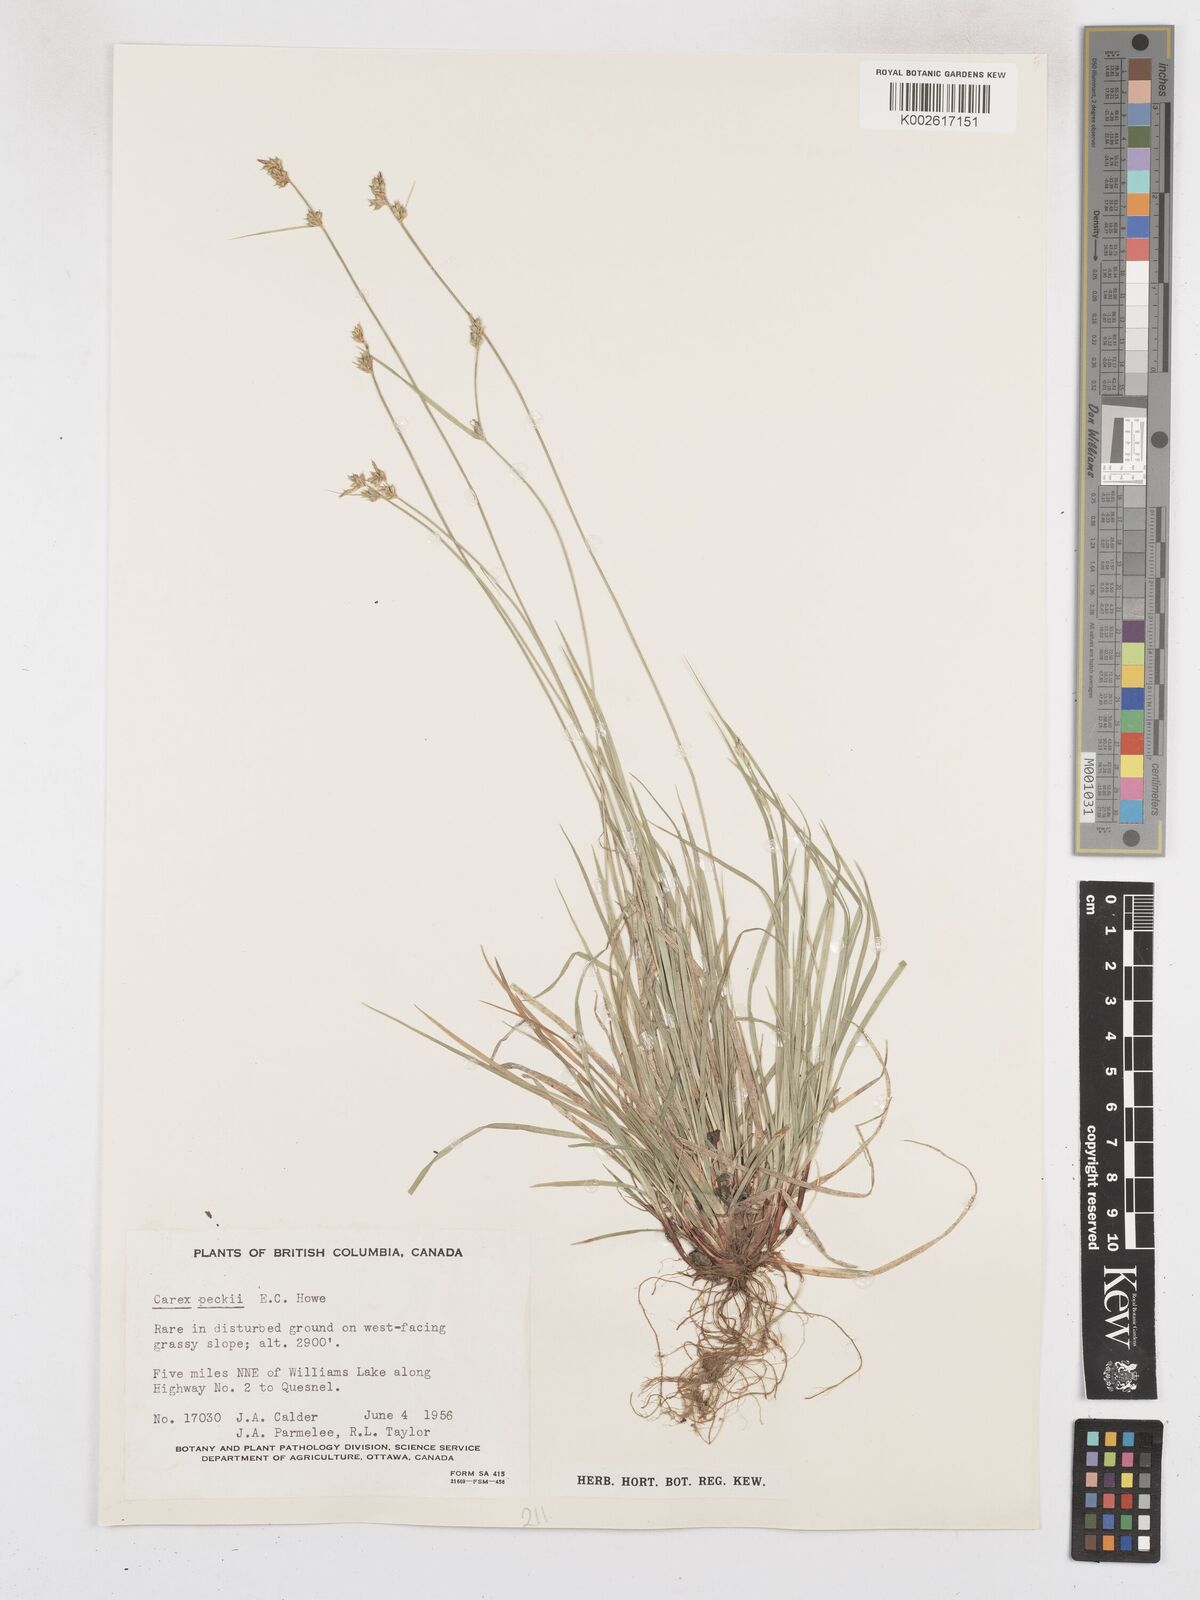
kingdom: Plantae
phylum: Tracheophyta
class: Liliopsida
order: Poales
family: Cyperaceae
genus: Carex
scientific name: Carex peckii
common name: Peck's oak sedge
